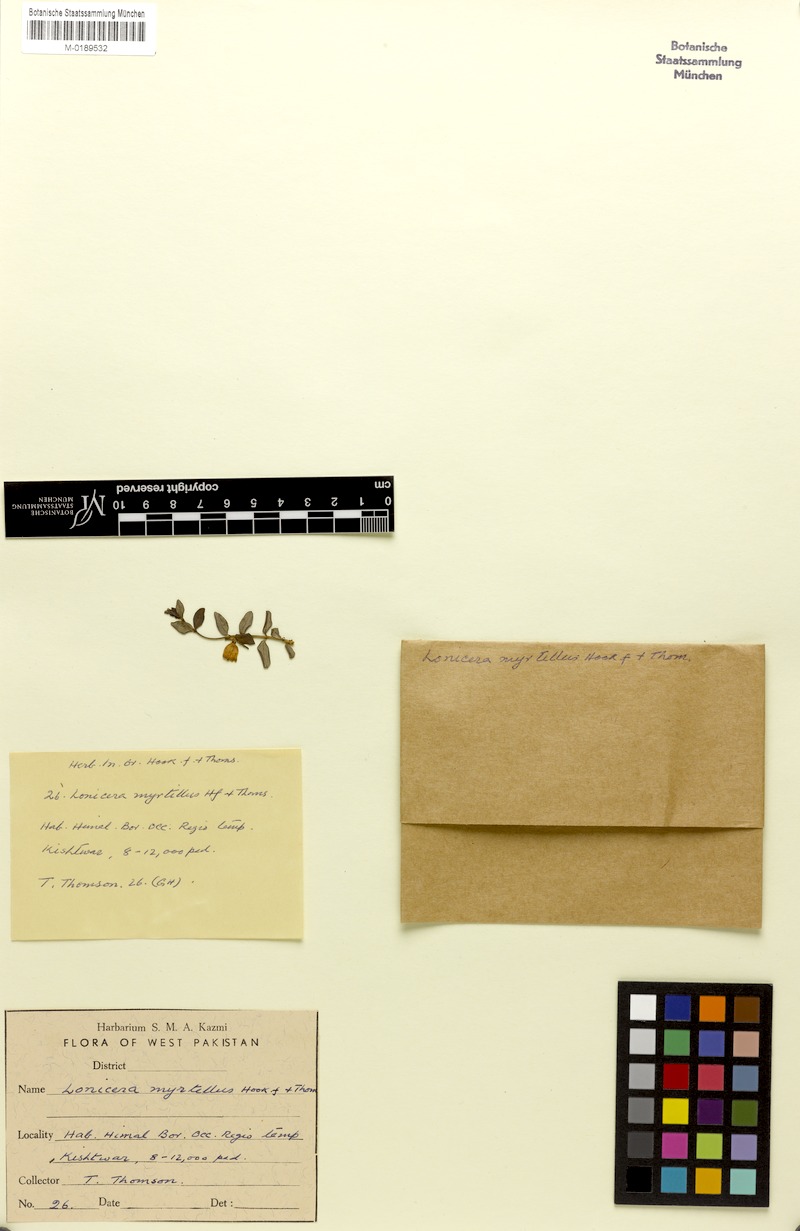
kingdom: Plantae
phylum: Tracheophyta
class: Magnoliopsida
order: Dipsacales
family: Caprifoliaceae
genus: Lonicera
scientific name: Lonicera angustifolia
